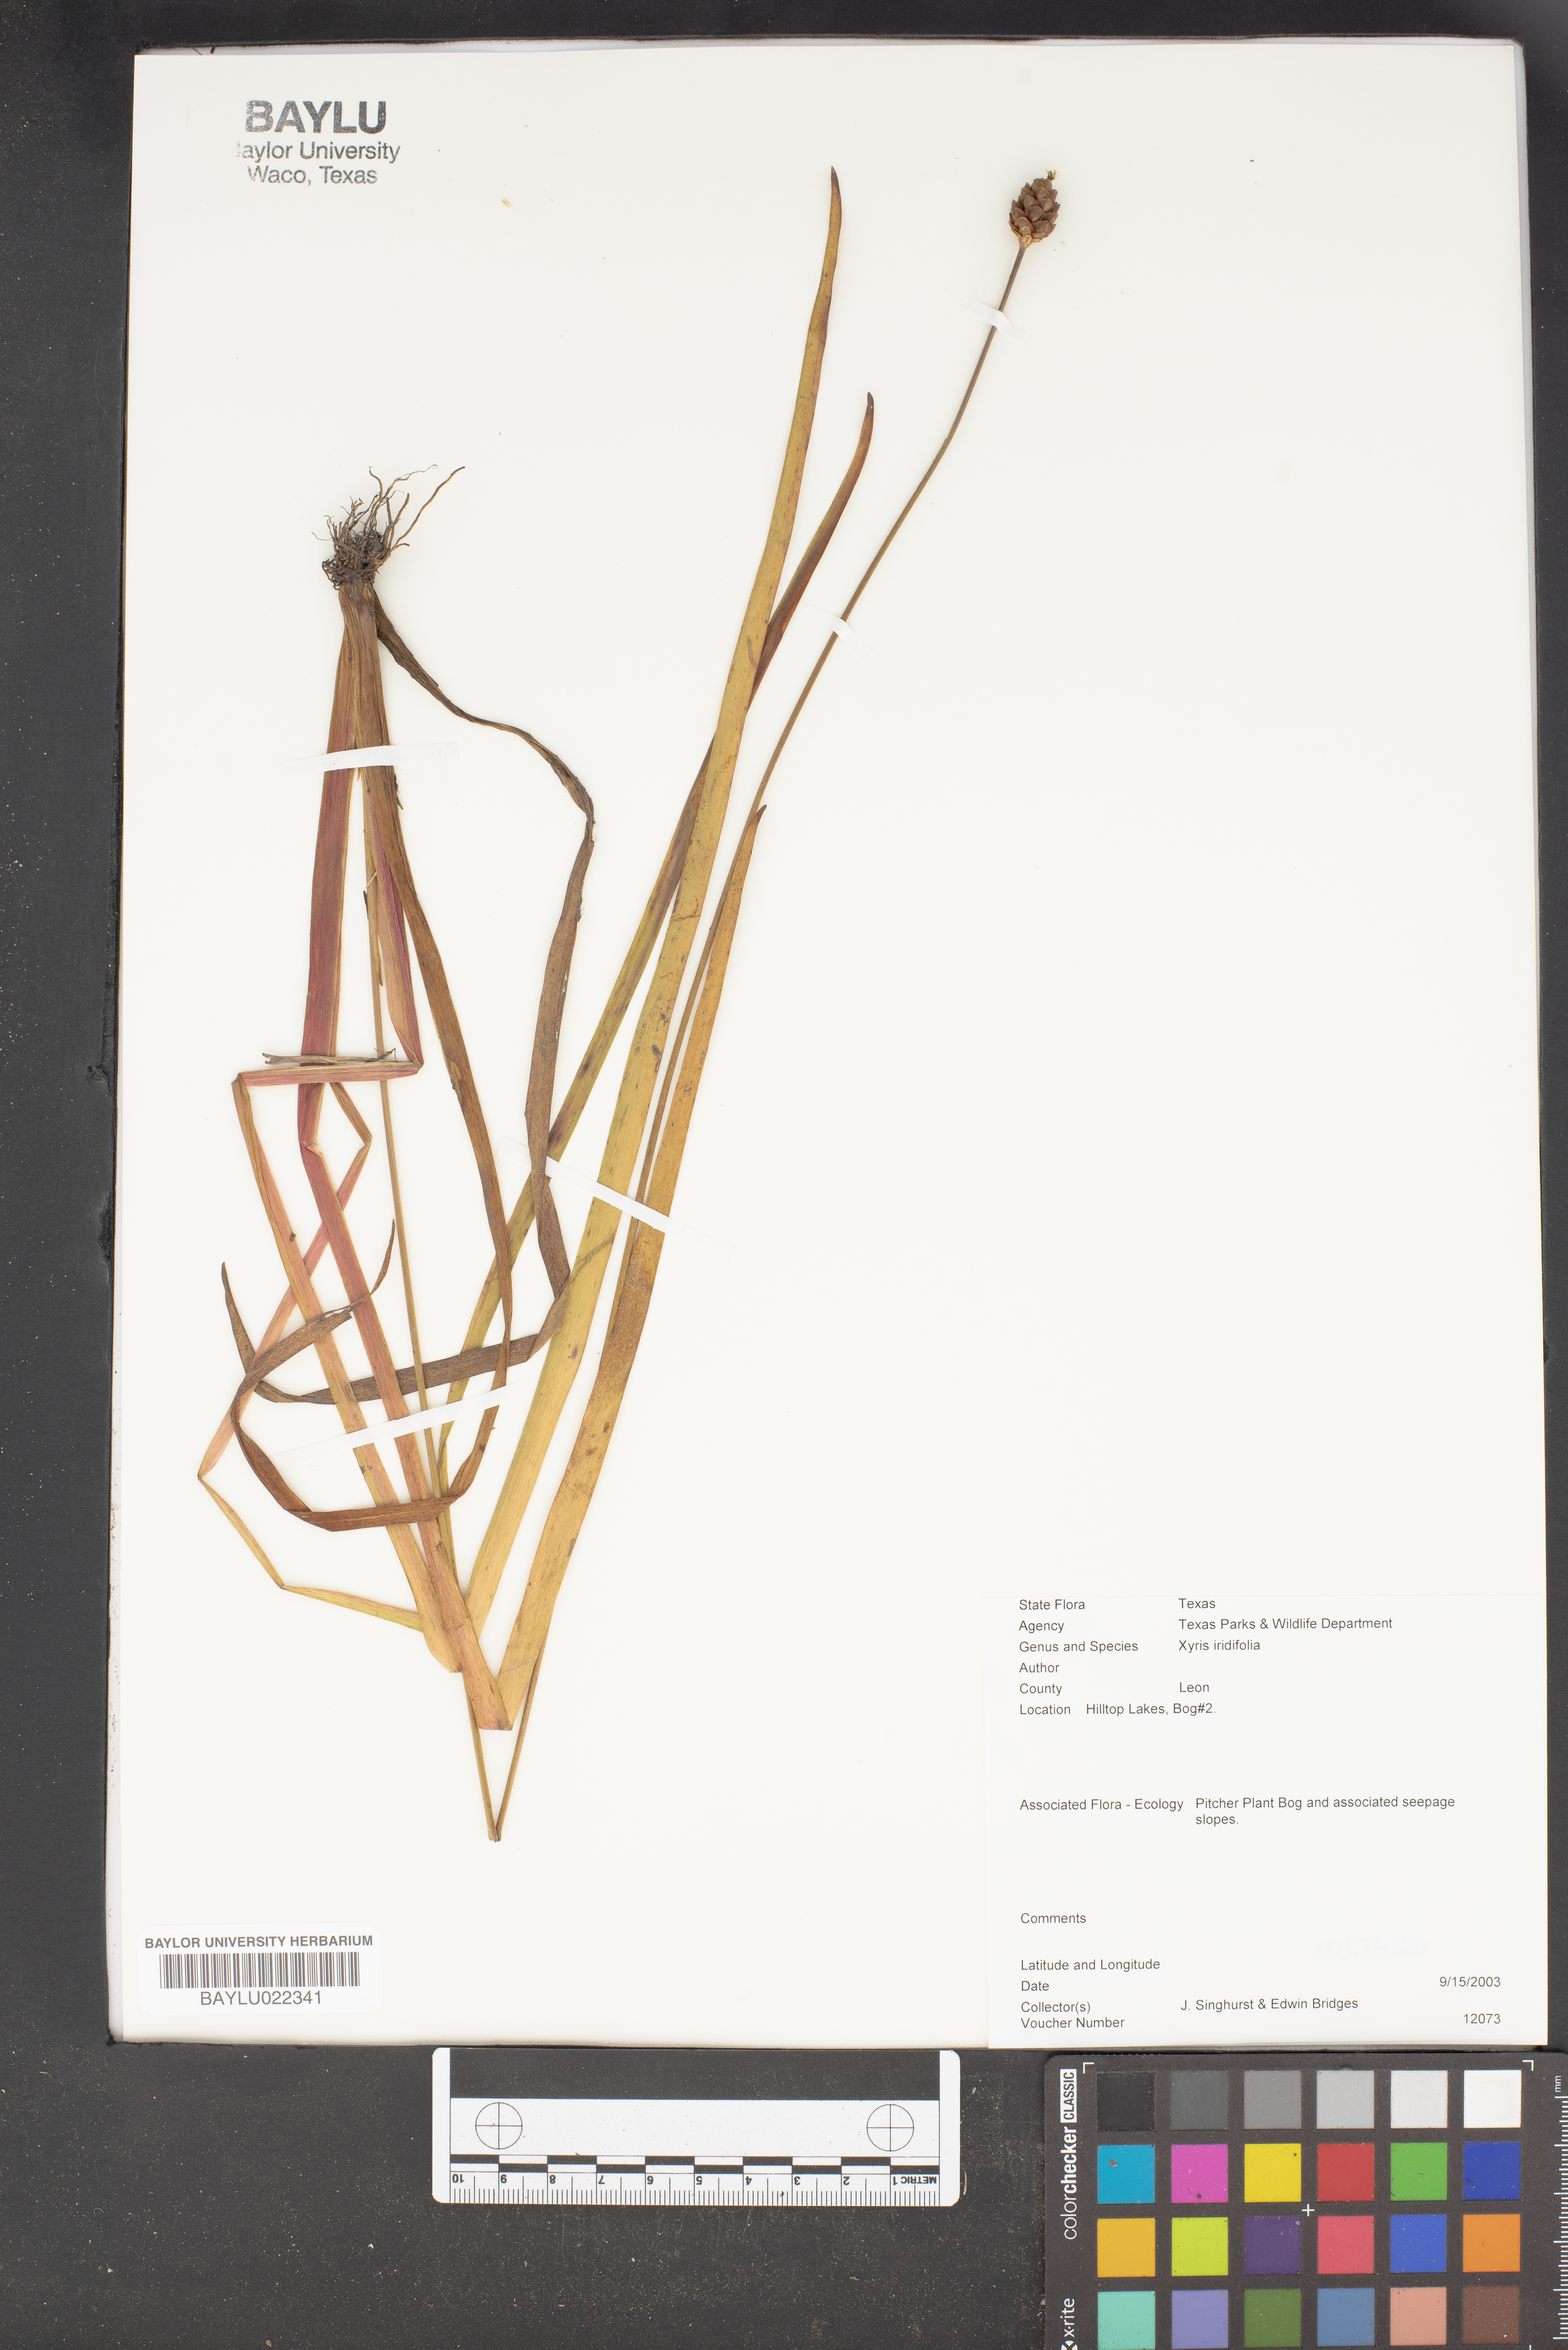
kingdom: Plantae
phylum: Tracheophyta
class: Liliopsida
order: Poales
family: Xyridaceae
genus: Xyris
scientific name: Xyris laxifolia
